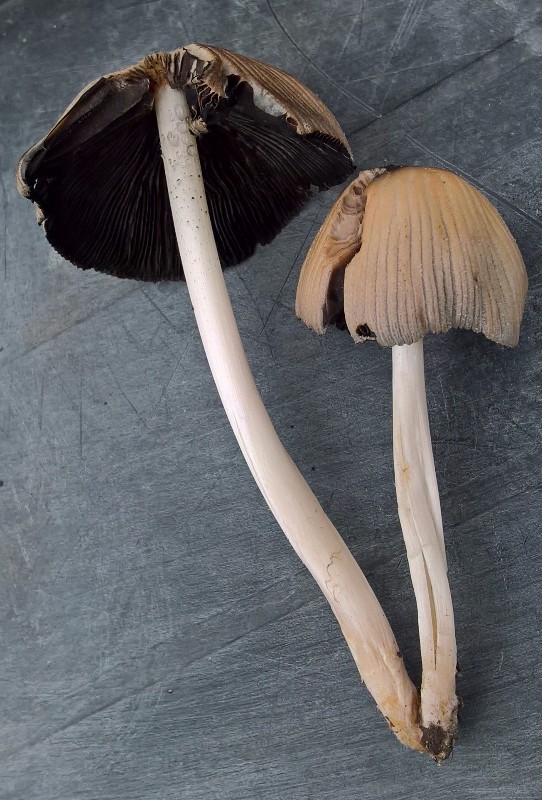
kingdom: Fungi
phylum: Basidiomycota
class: Agaricomycetes
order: Agaricales
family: Psathyrellaceae
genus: Coprinellus
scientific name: Coprinellus
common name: blækhat
